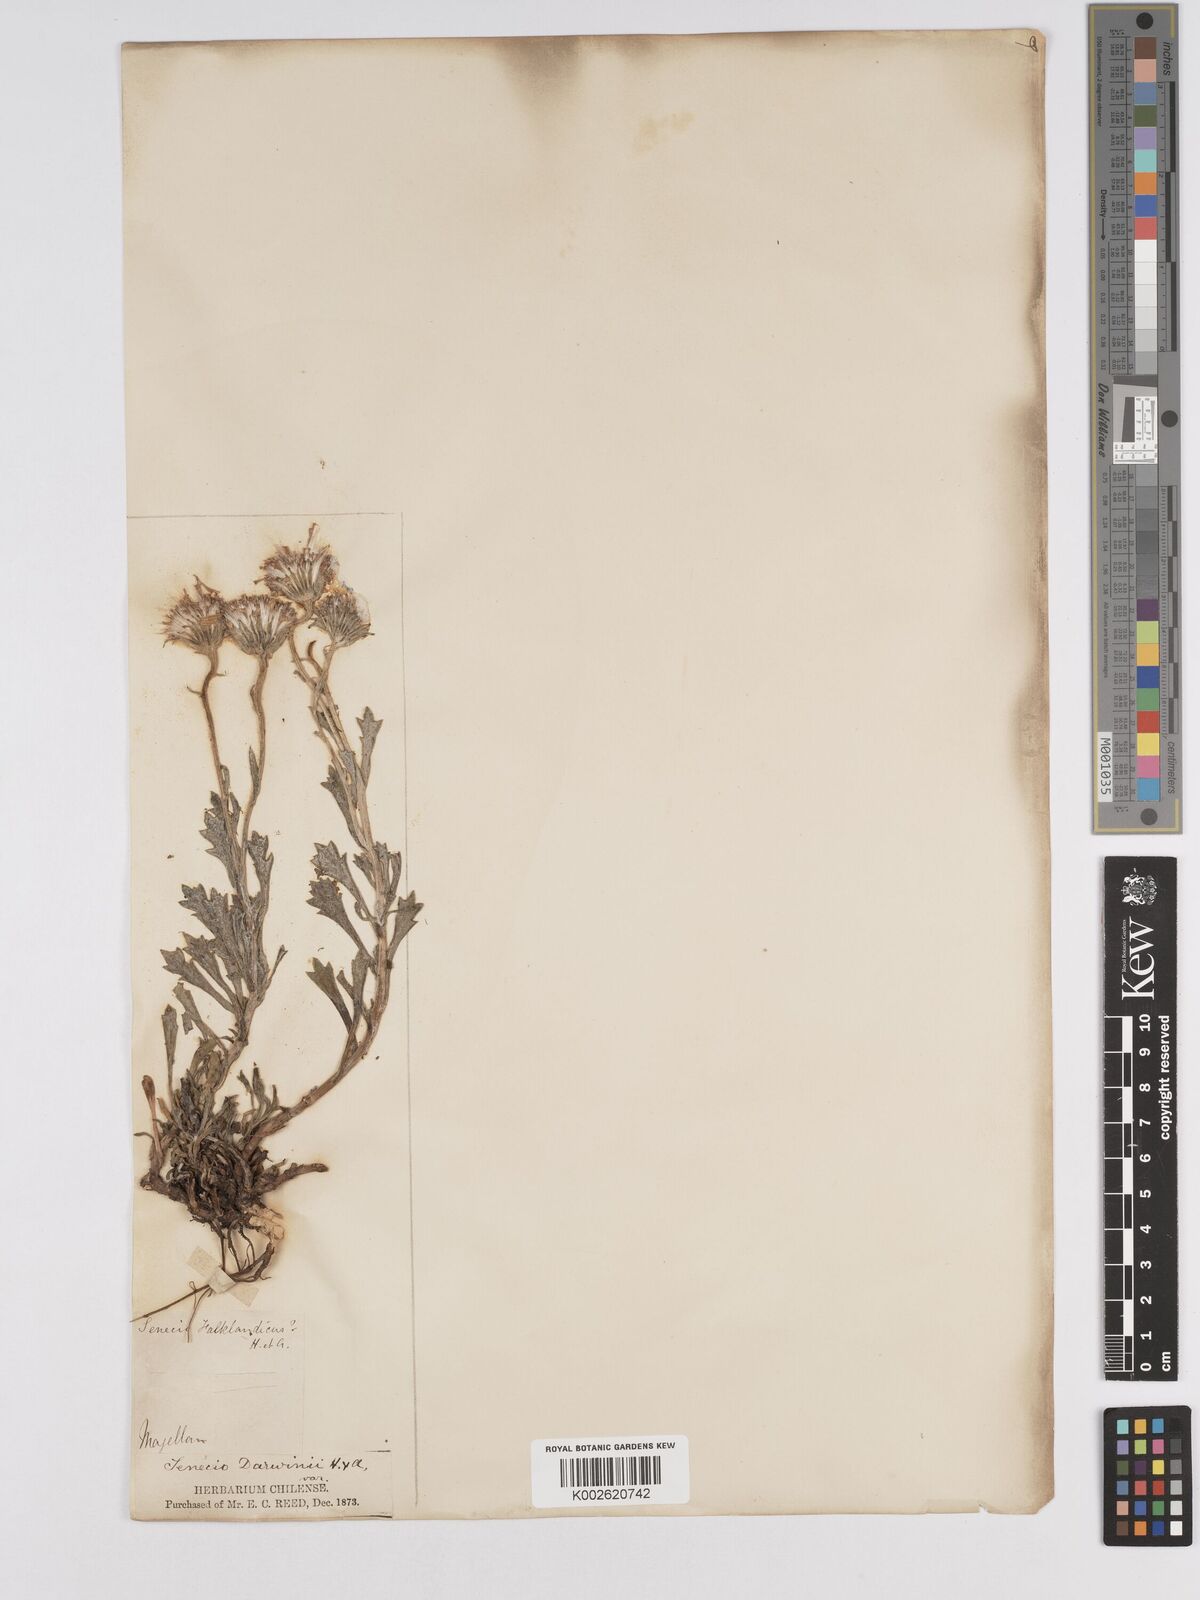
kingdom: Plantae
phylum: Tracheophyta
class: Magnoliopsida
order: Asterales
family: Asteraceae
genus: Senecio
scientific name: Senecio darwinii
